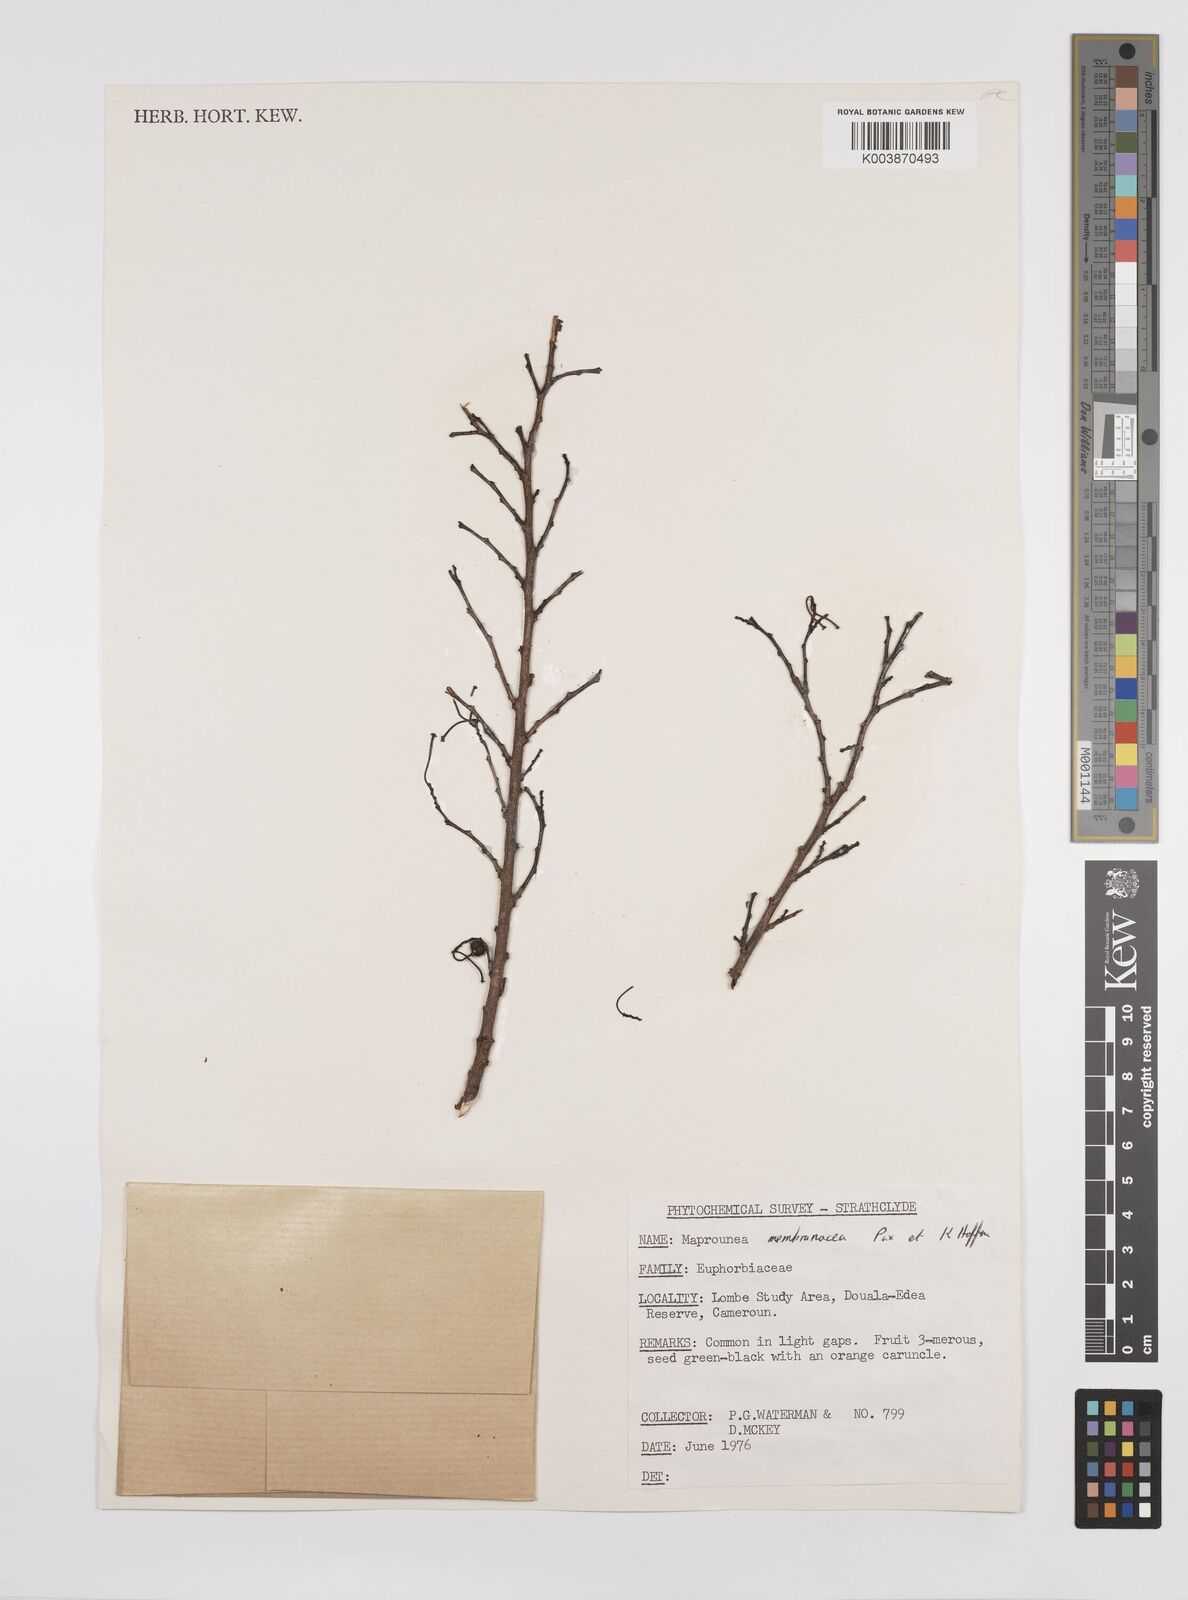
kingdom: Plantae
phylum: Tracheophyta
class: Magnoliopsida
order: Malpighiales
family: Euphorbiaceae
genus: Maprounea
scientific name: Maprounea membranacea
